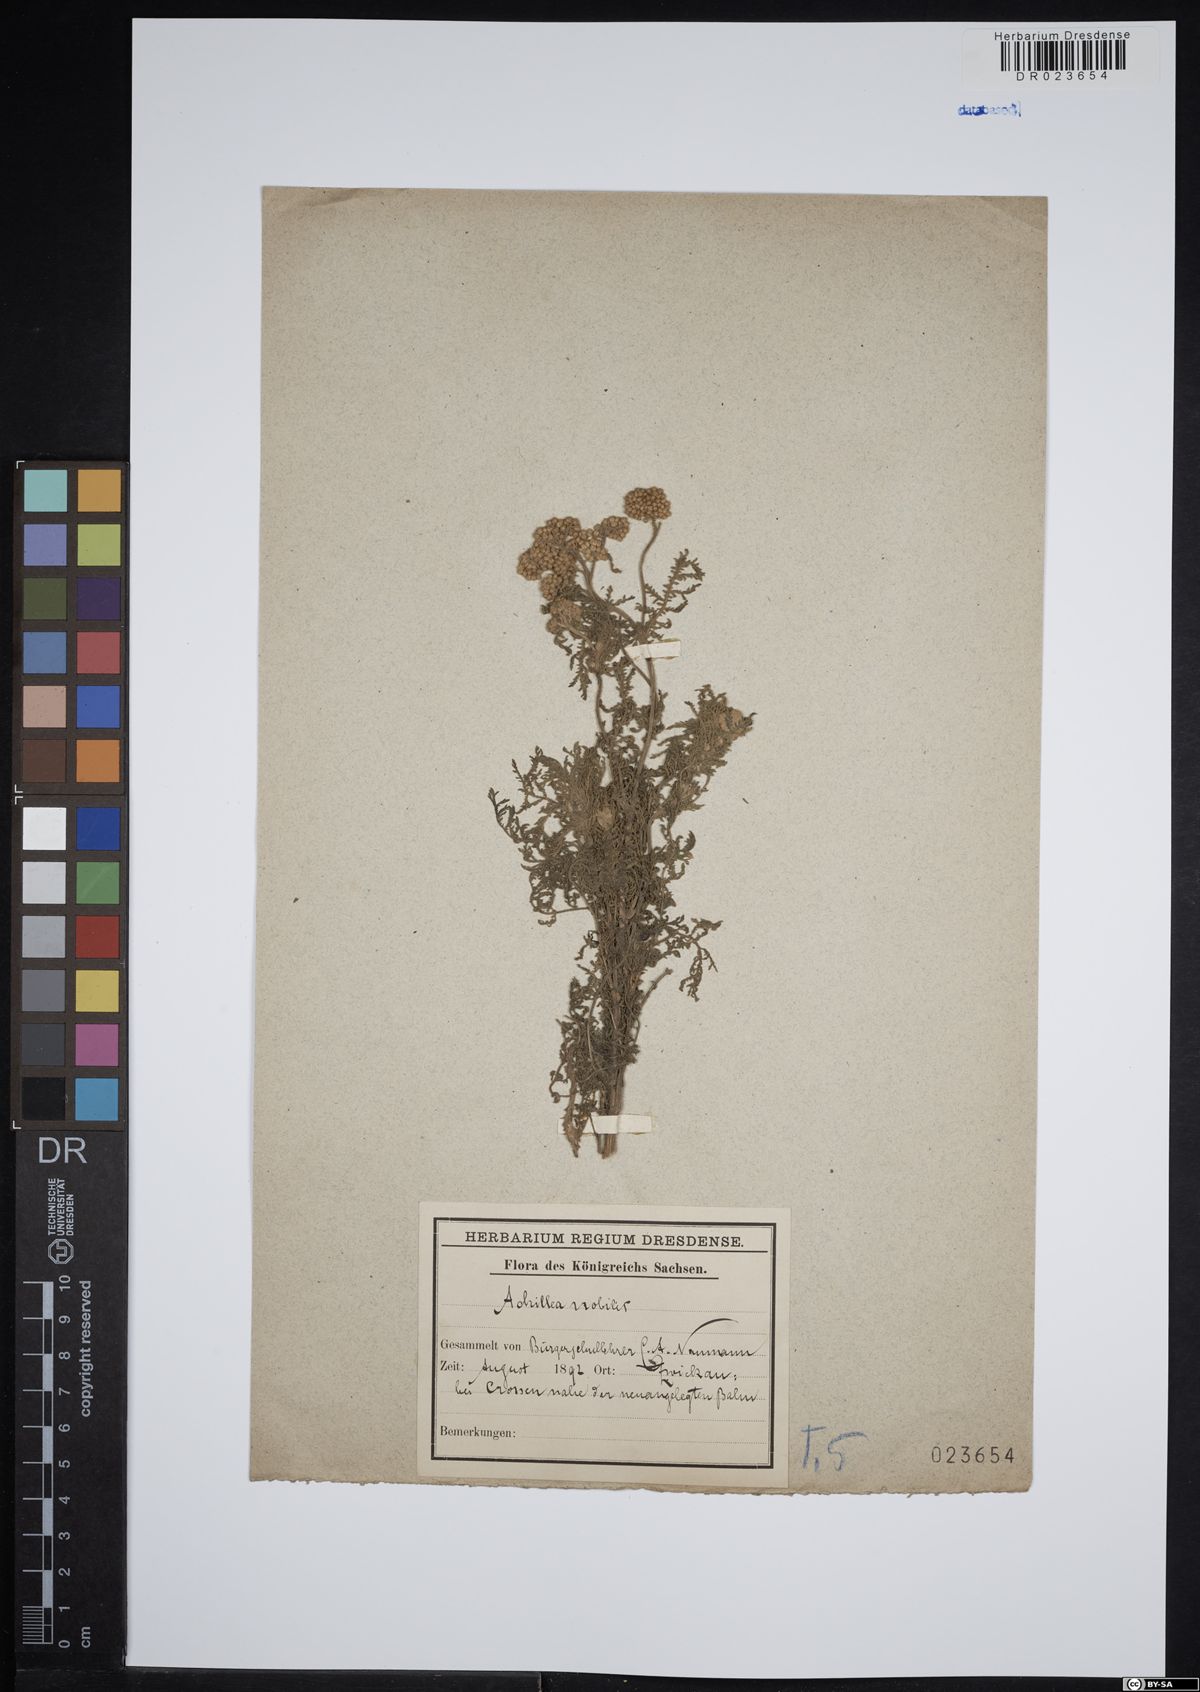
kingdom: Plantae
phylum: Tracheophyta
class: Magnoliopsida
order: Asterales
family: Asteraceae
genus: Achillea
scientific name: Achillea nobilis
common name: Noble yarrow
